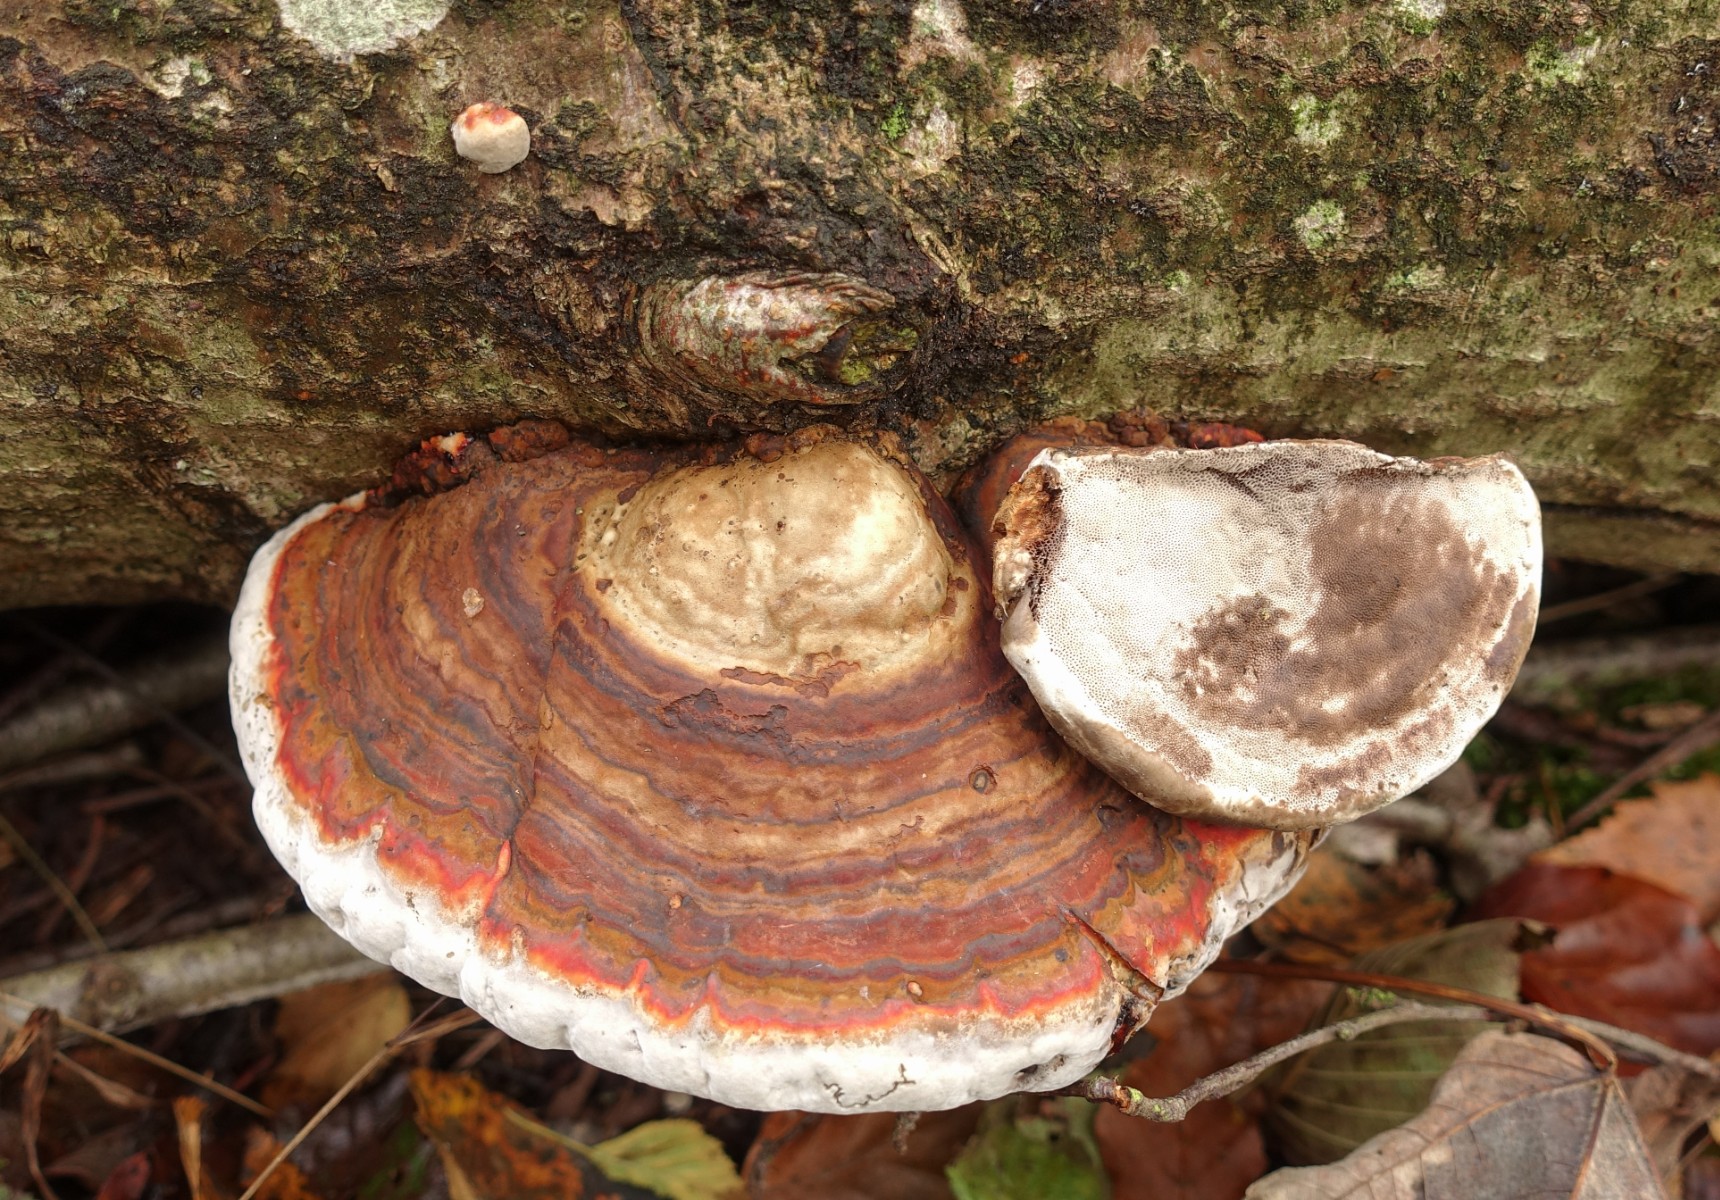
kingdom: Fungi
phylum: Basidiomycota
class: Agaricomycetes
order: Polyporales
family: Polyporaceae
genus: Ganoderma
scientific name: Ganoderma applanatum
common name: flad lakporesvamp
